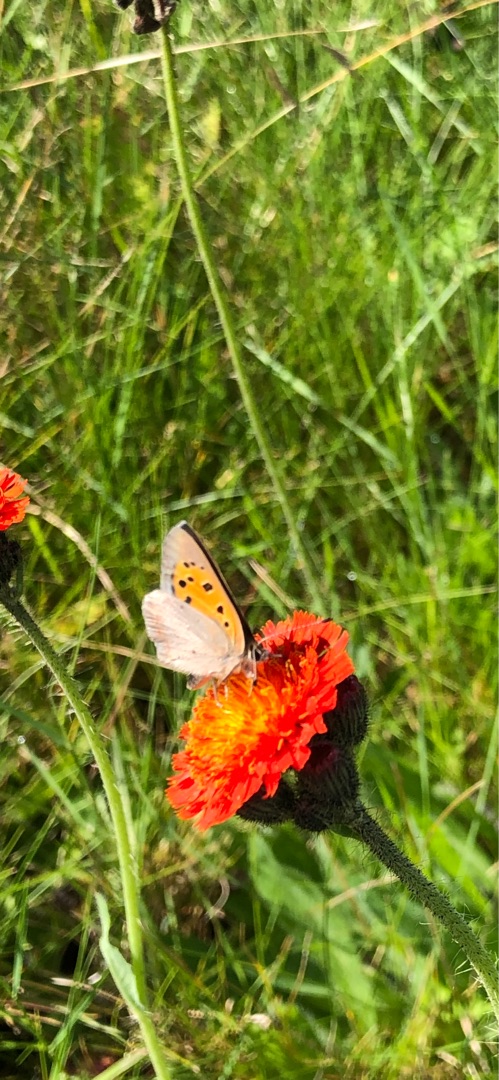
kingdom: Animalia
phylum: Arthropoda
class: Insecta
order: Lepidoptera
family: Lycaenidae
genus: Lycaena
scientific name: Lycaena phlaeas
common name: Lille ildfugl
